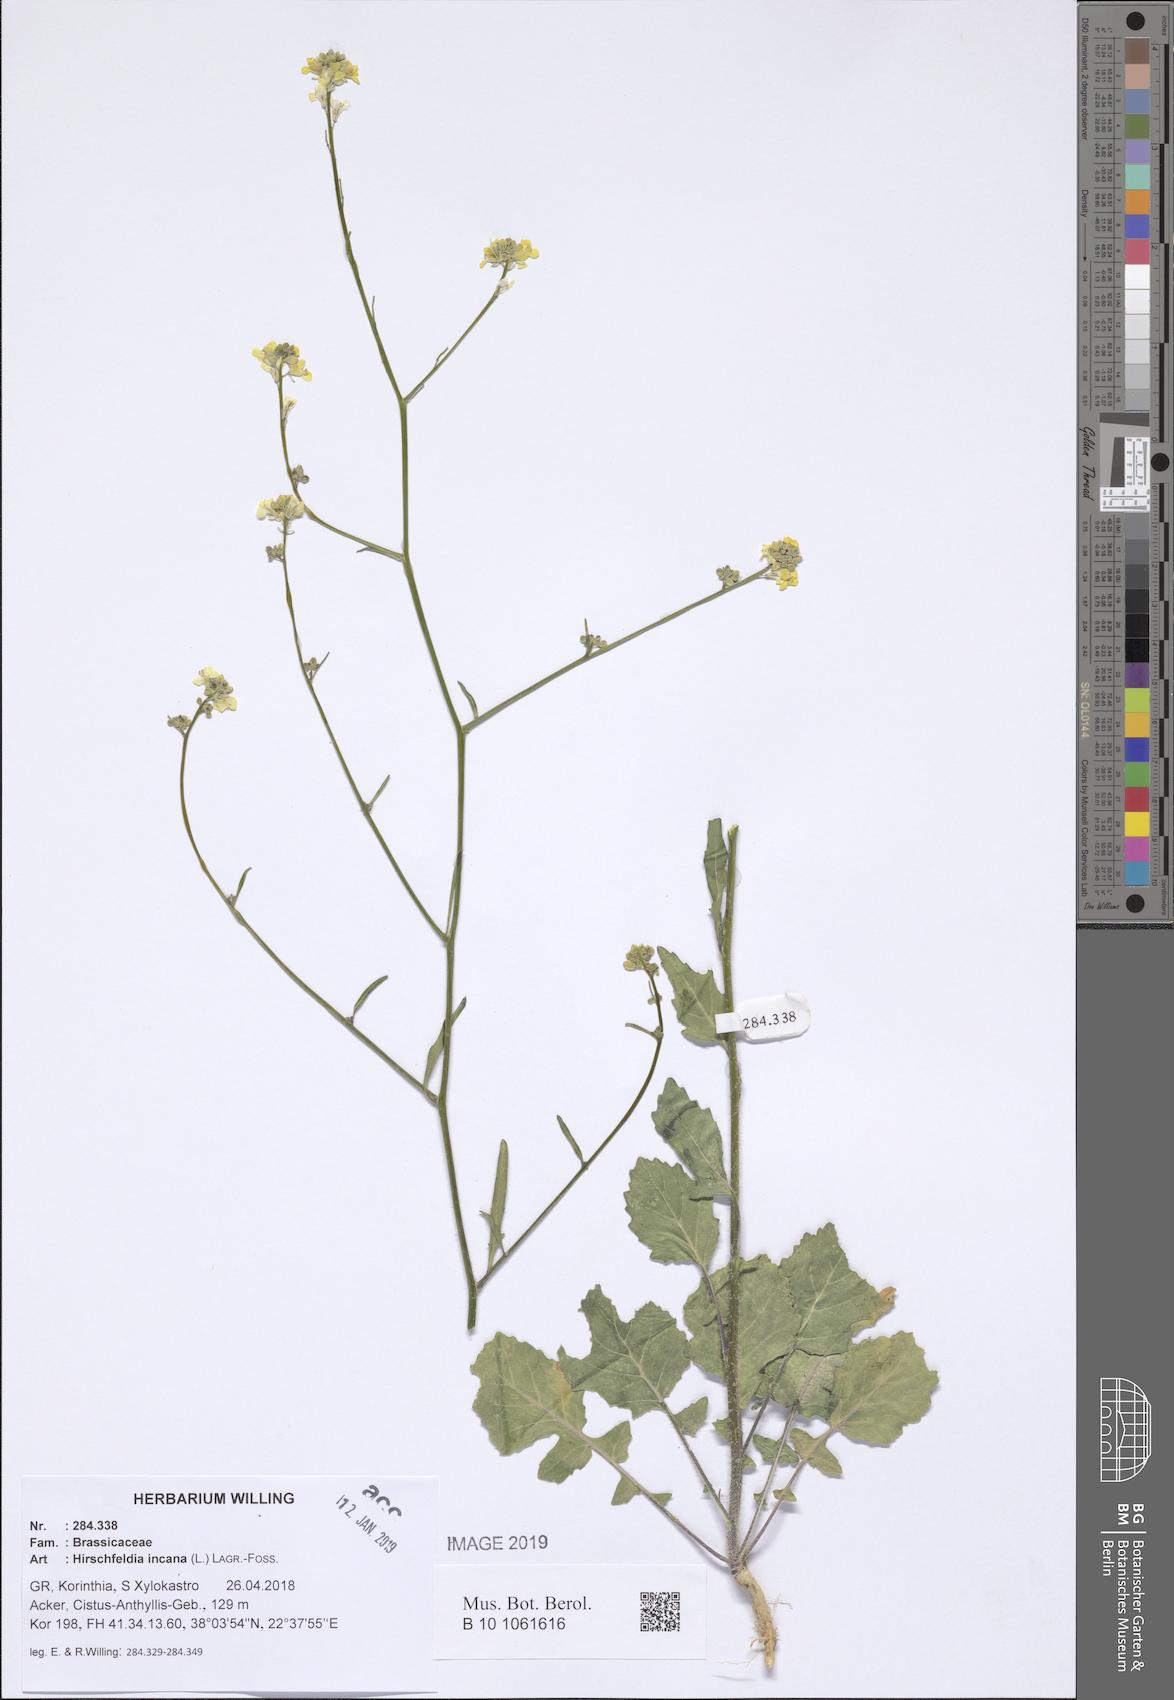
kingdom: Plantae
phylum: Tracheophyta
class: Magnoliopsida
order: Brassicales
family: Brassicaceae
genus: Hirschfeldia
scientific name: Hirschfeldia incana
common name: Hoary mustard
